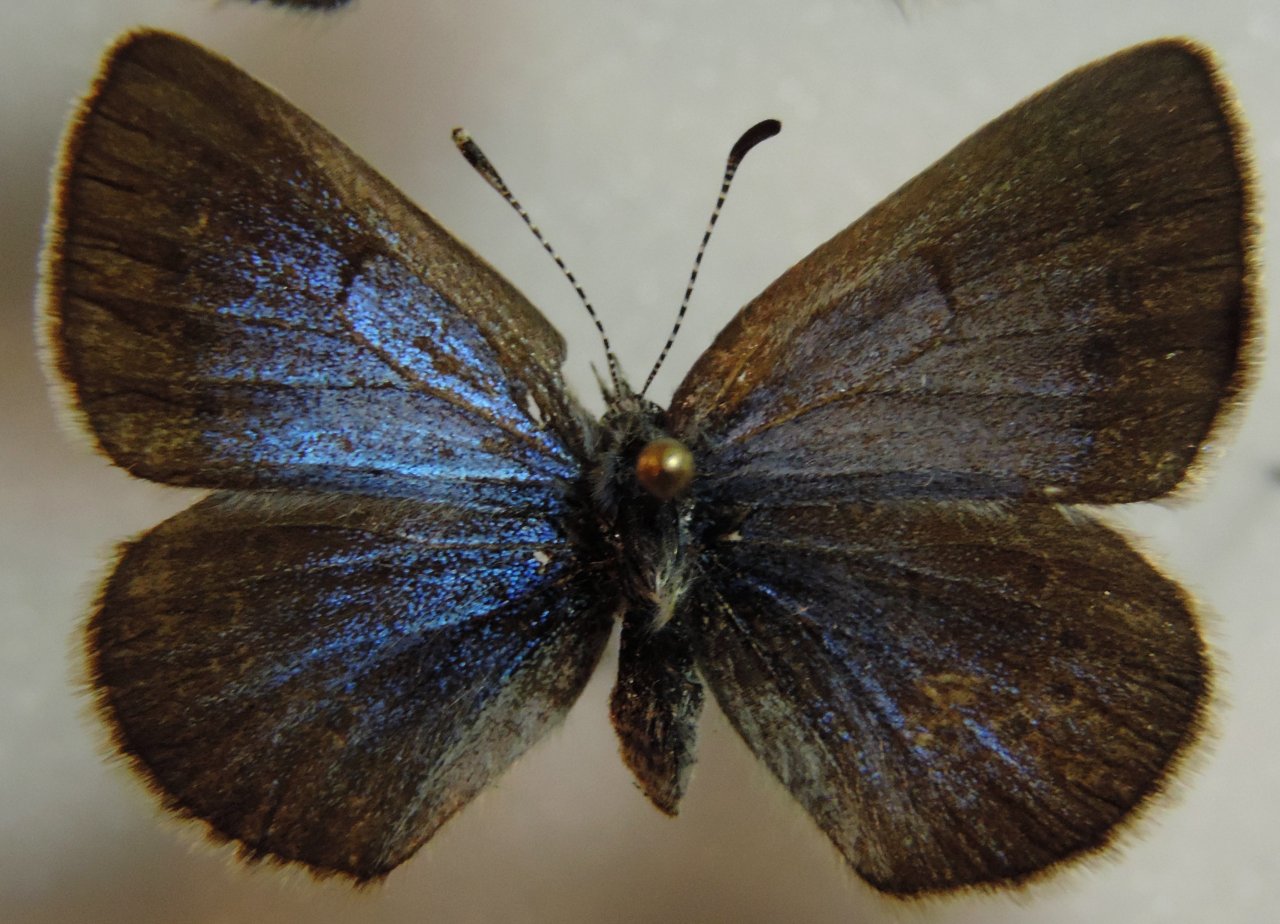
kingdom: Animalia
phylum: Arthropoda
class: Insecta
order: Lepidoptera
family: Lycaenidae
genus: Glaucopsyche
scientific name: Glaucopsyche lygdamus
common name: Silvery Blue
